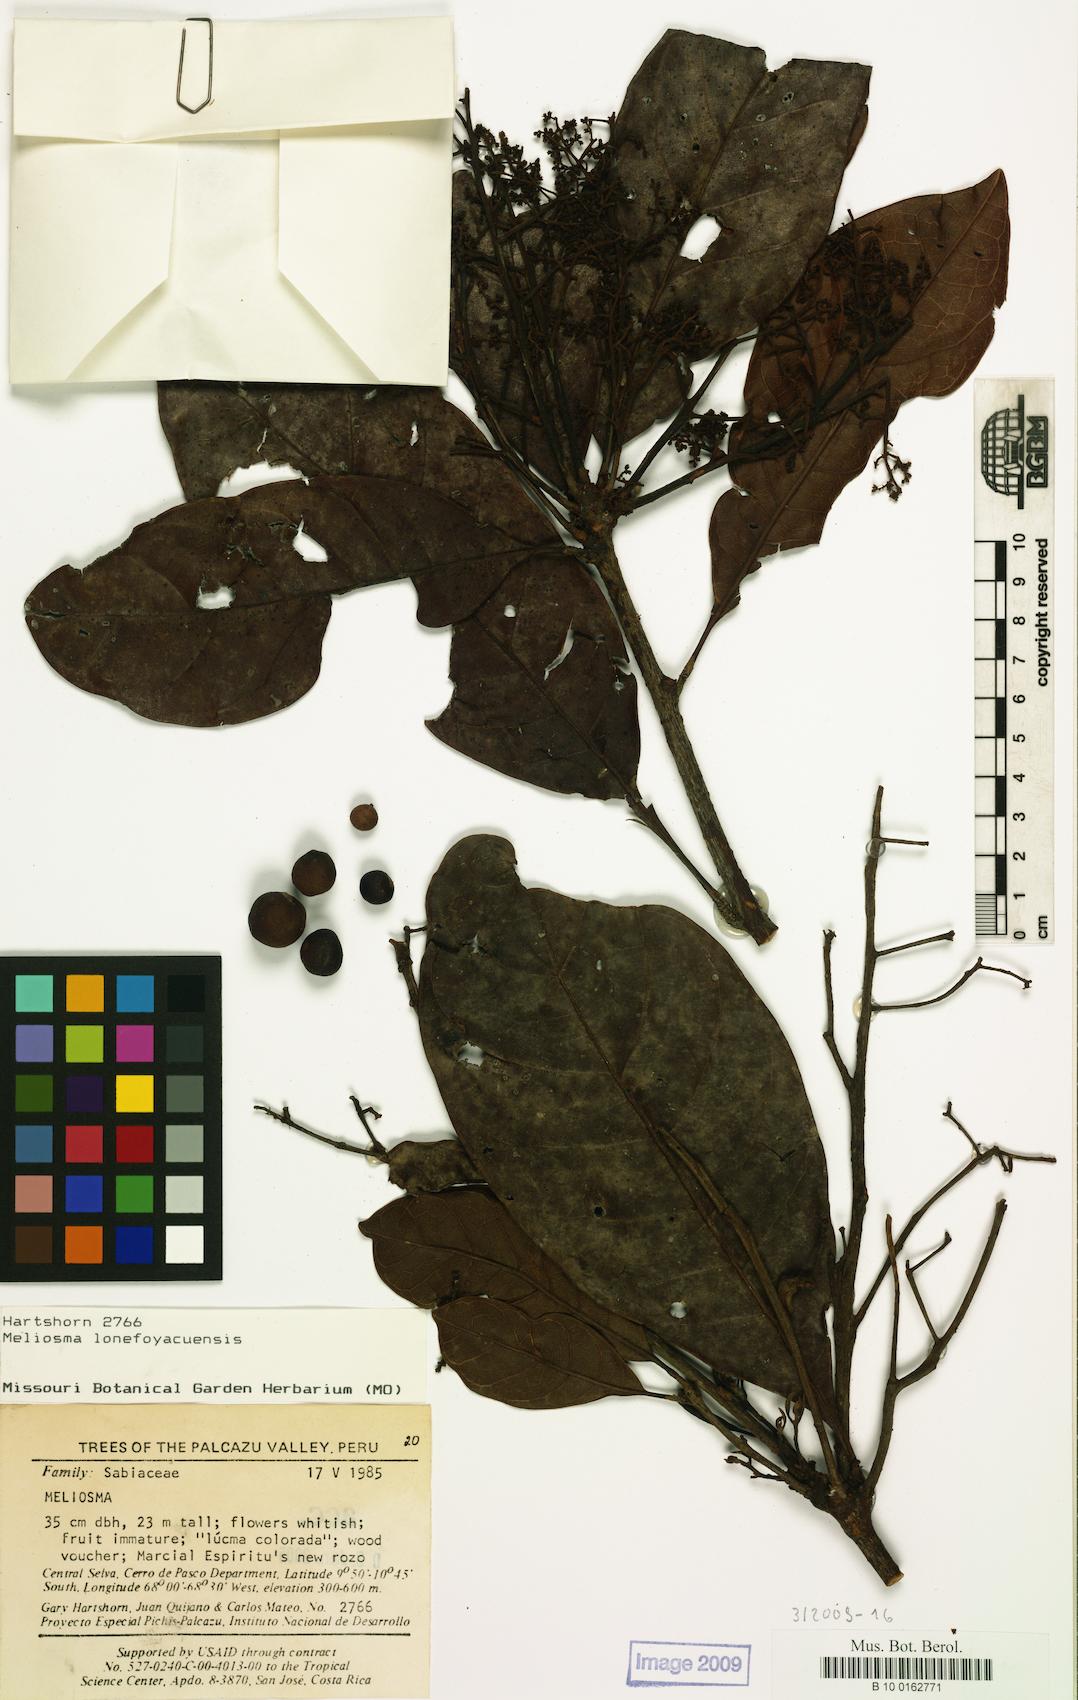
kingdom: Plantae
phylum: Tracheophyta
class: Magnoliopsida
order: Proteales
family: Sabiaceae
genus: Meliosma
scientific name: Meliosma
